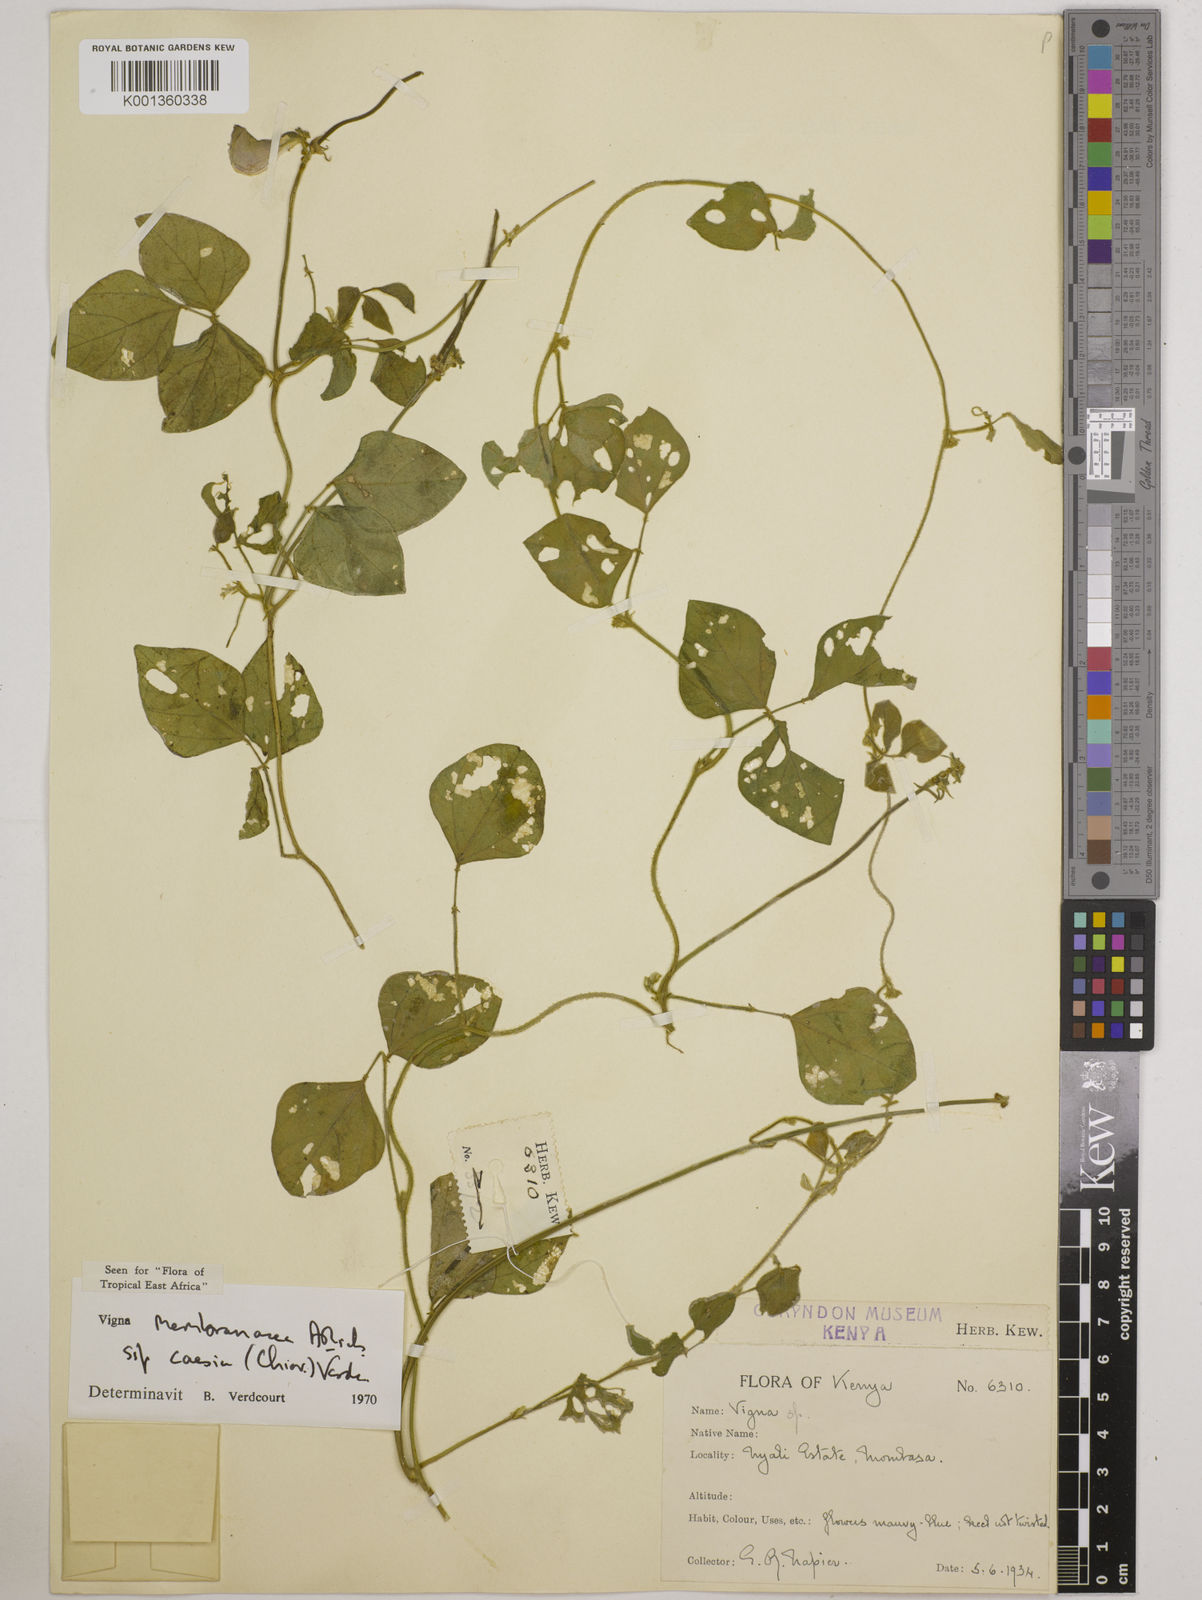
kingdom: Plantae
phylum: Tracheophyta
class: Magnoliopsida
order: Fabales
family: Fabaceae
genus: Vigna
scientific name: Vigna
